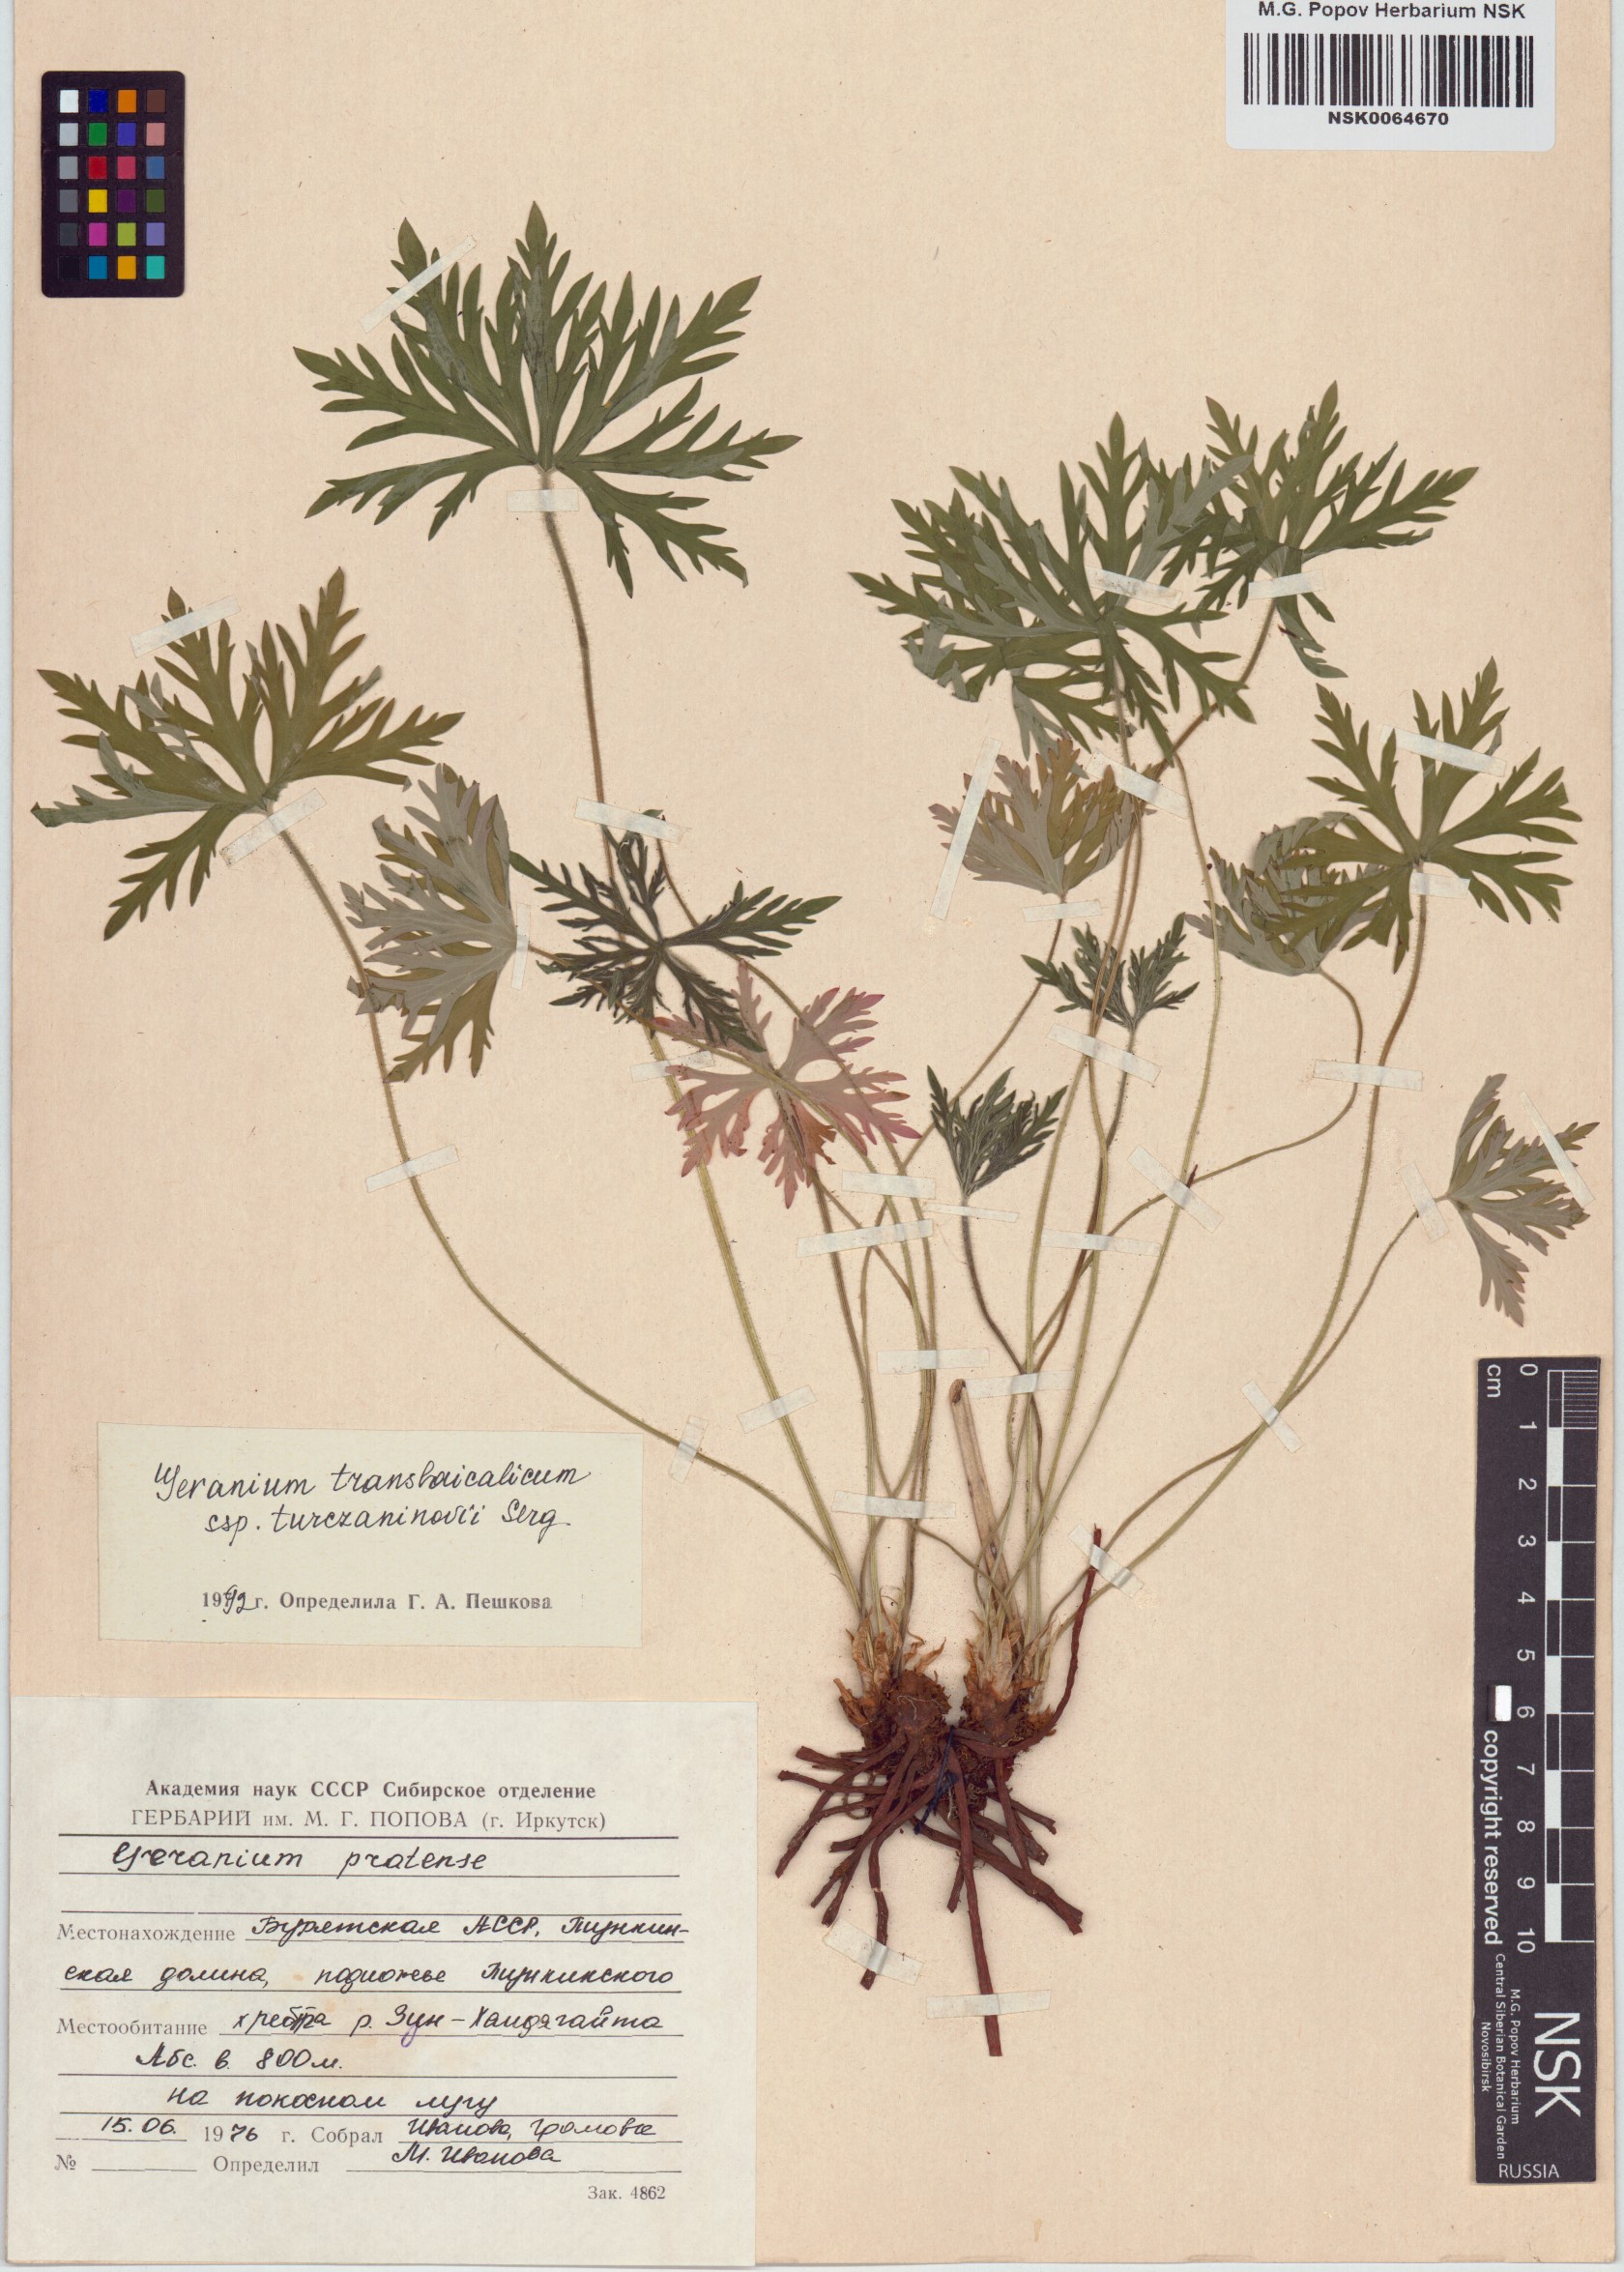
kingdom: Plantae
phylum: Tracheophyta
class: Magnoliopsida
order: Geraniales
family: Geraniaceae
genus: Geranium
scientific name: Geranium pratense
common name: Meadow crane's-bill
